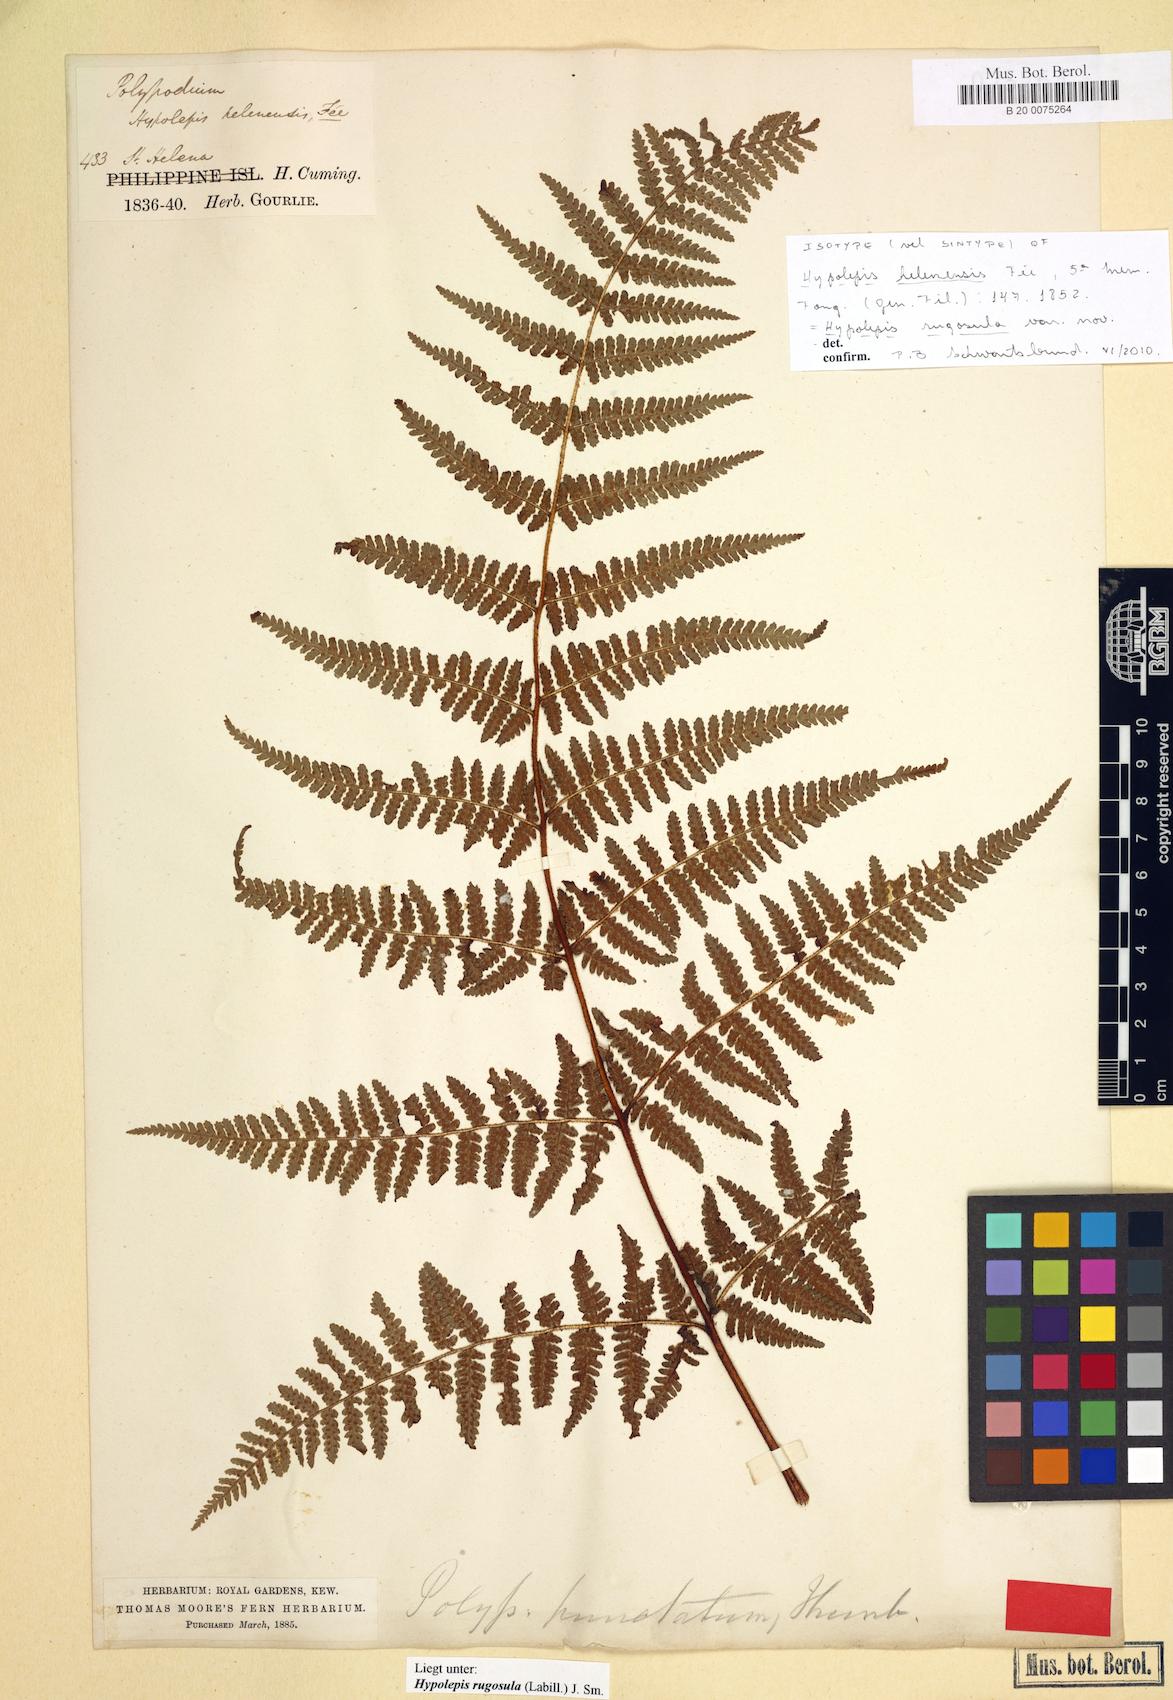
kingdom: Plantae
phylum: Tracheophyta
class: Polypodiopsida
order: Polypodiales
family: Dennstaedtiaceae
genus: Hypolepis
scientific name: Hypolepis rugosula
